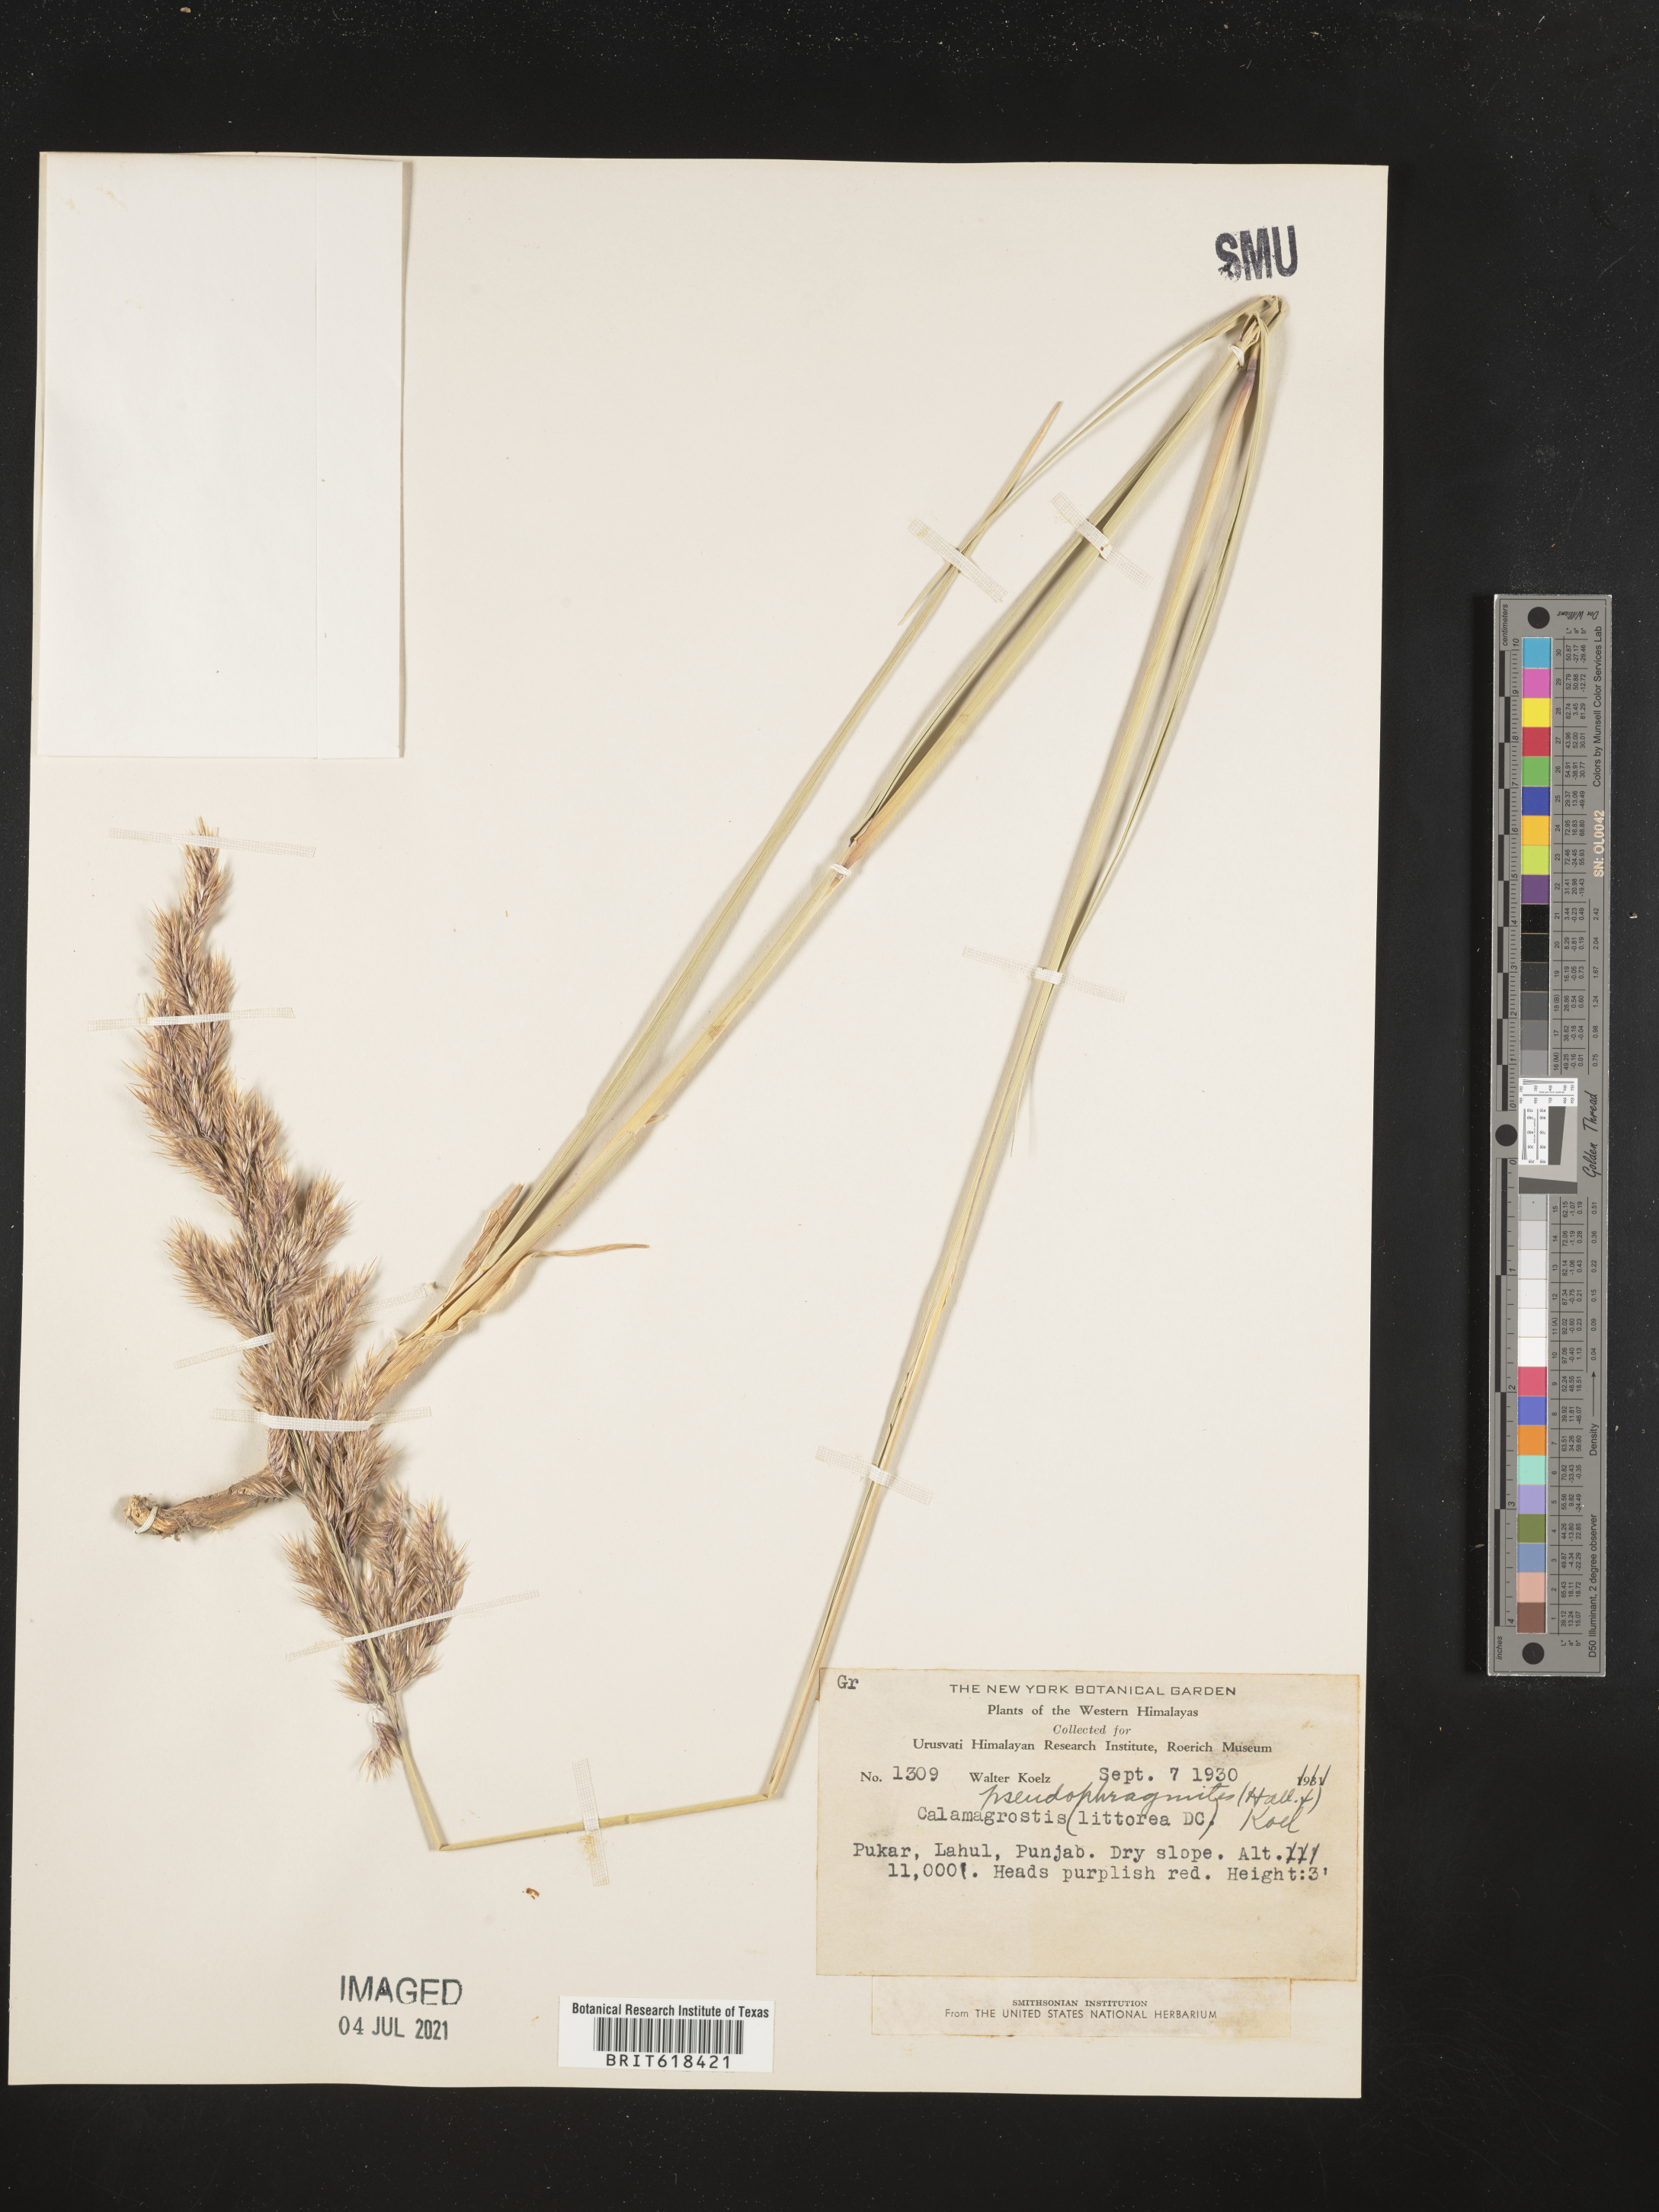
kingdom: Plantae
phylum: Tracheophyta
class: Liliopsida
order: Poales
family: Poaceae
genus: Calamagrostis
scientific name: Calamagrostis pseudophragmites
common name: Coastal small-reed
